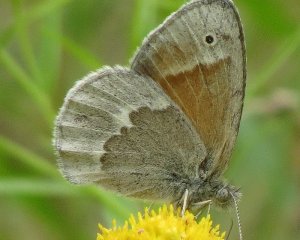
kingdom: Animalia
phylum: Arthropoda
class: Insecta
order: Lepidoptera
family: Nymphalidae
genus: Coenonympha
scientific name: Coenonympha tullia
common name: Large Heath
